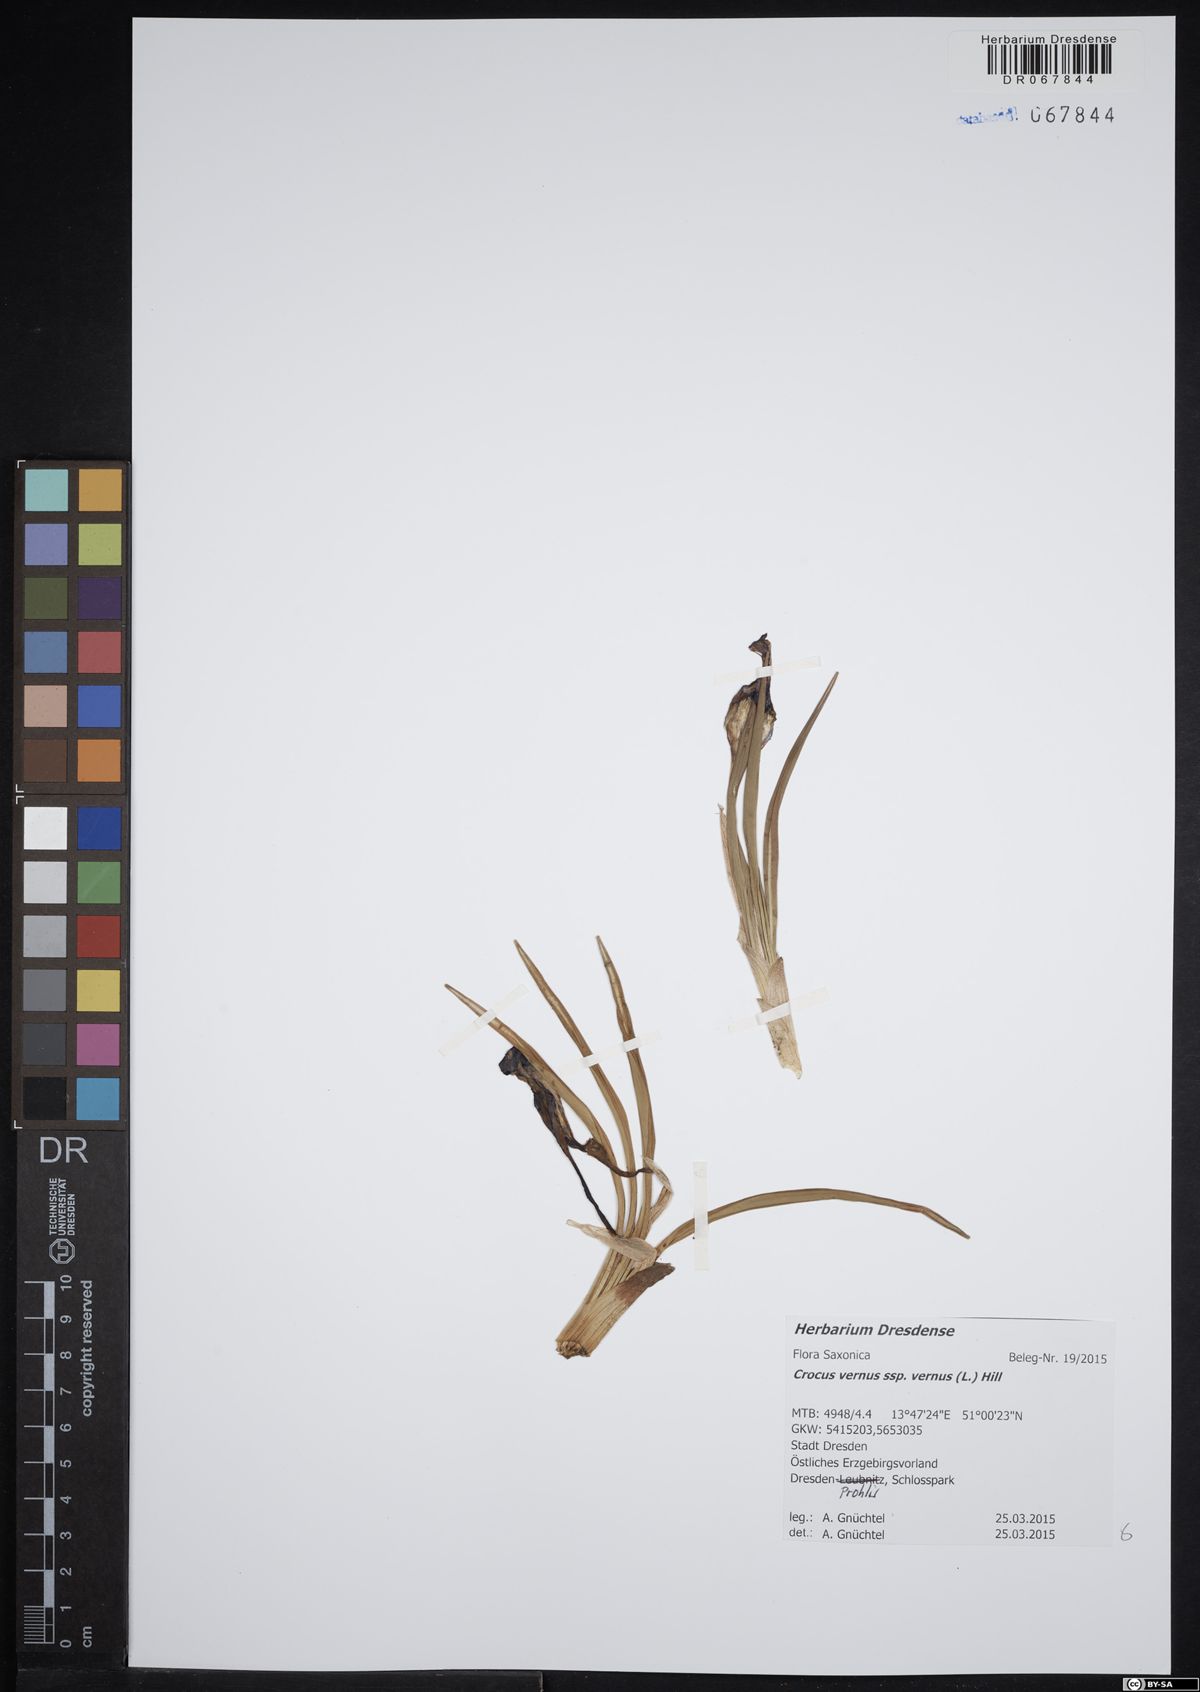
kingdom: Plantae
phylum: Tracheophyta
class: Liliopsida
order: Asparagales
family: Iridaceae
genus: Crocus
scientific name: Crocus vernus
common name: Spring crocus
